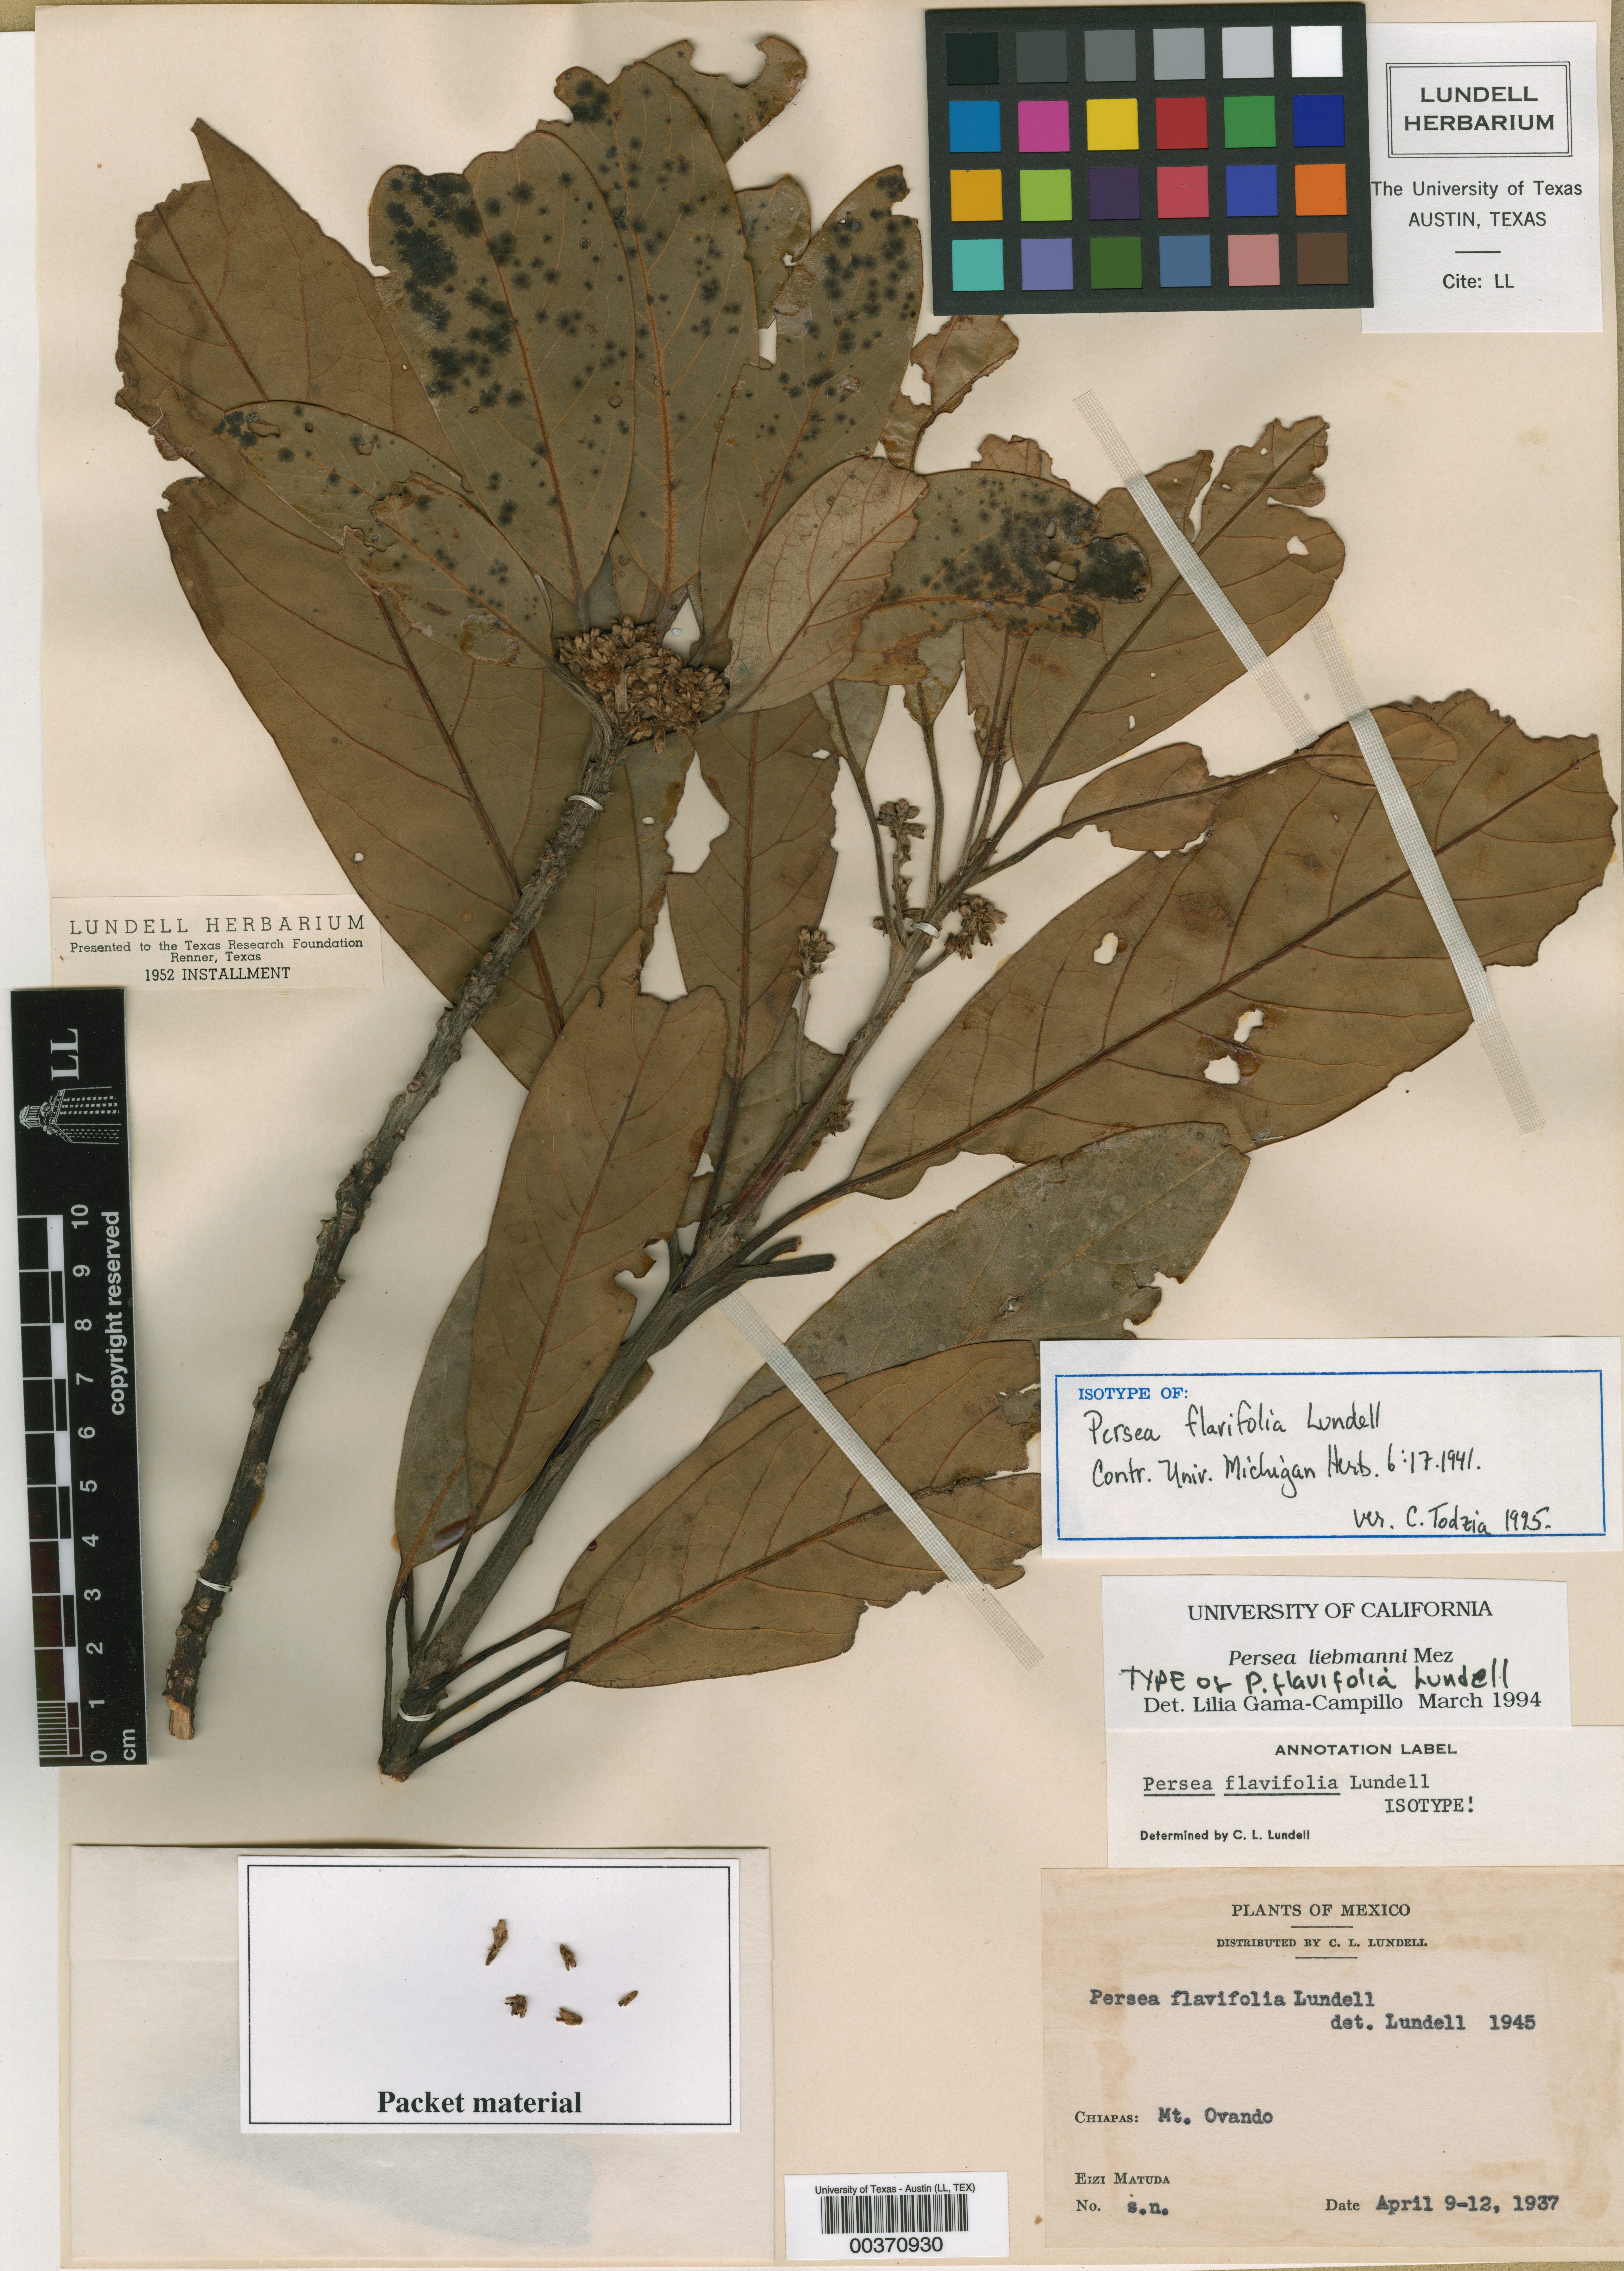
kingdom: Plantae
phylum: Tracheophyta
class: Magnoliopsida
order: Laurales
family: Lauraceae
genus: Persea
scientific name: Persea liebmannii
